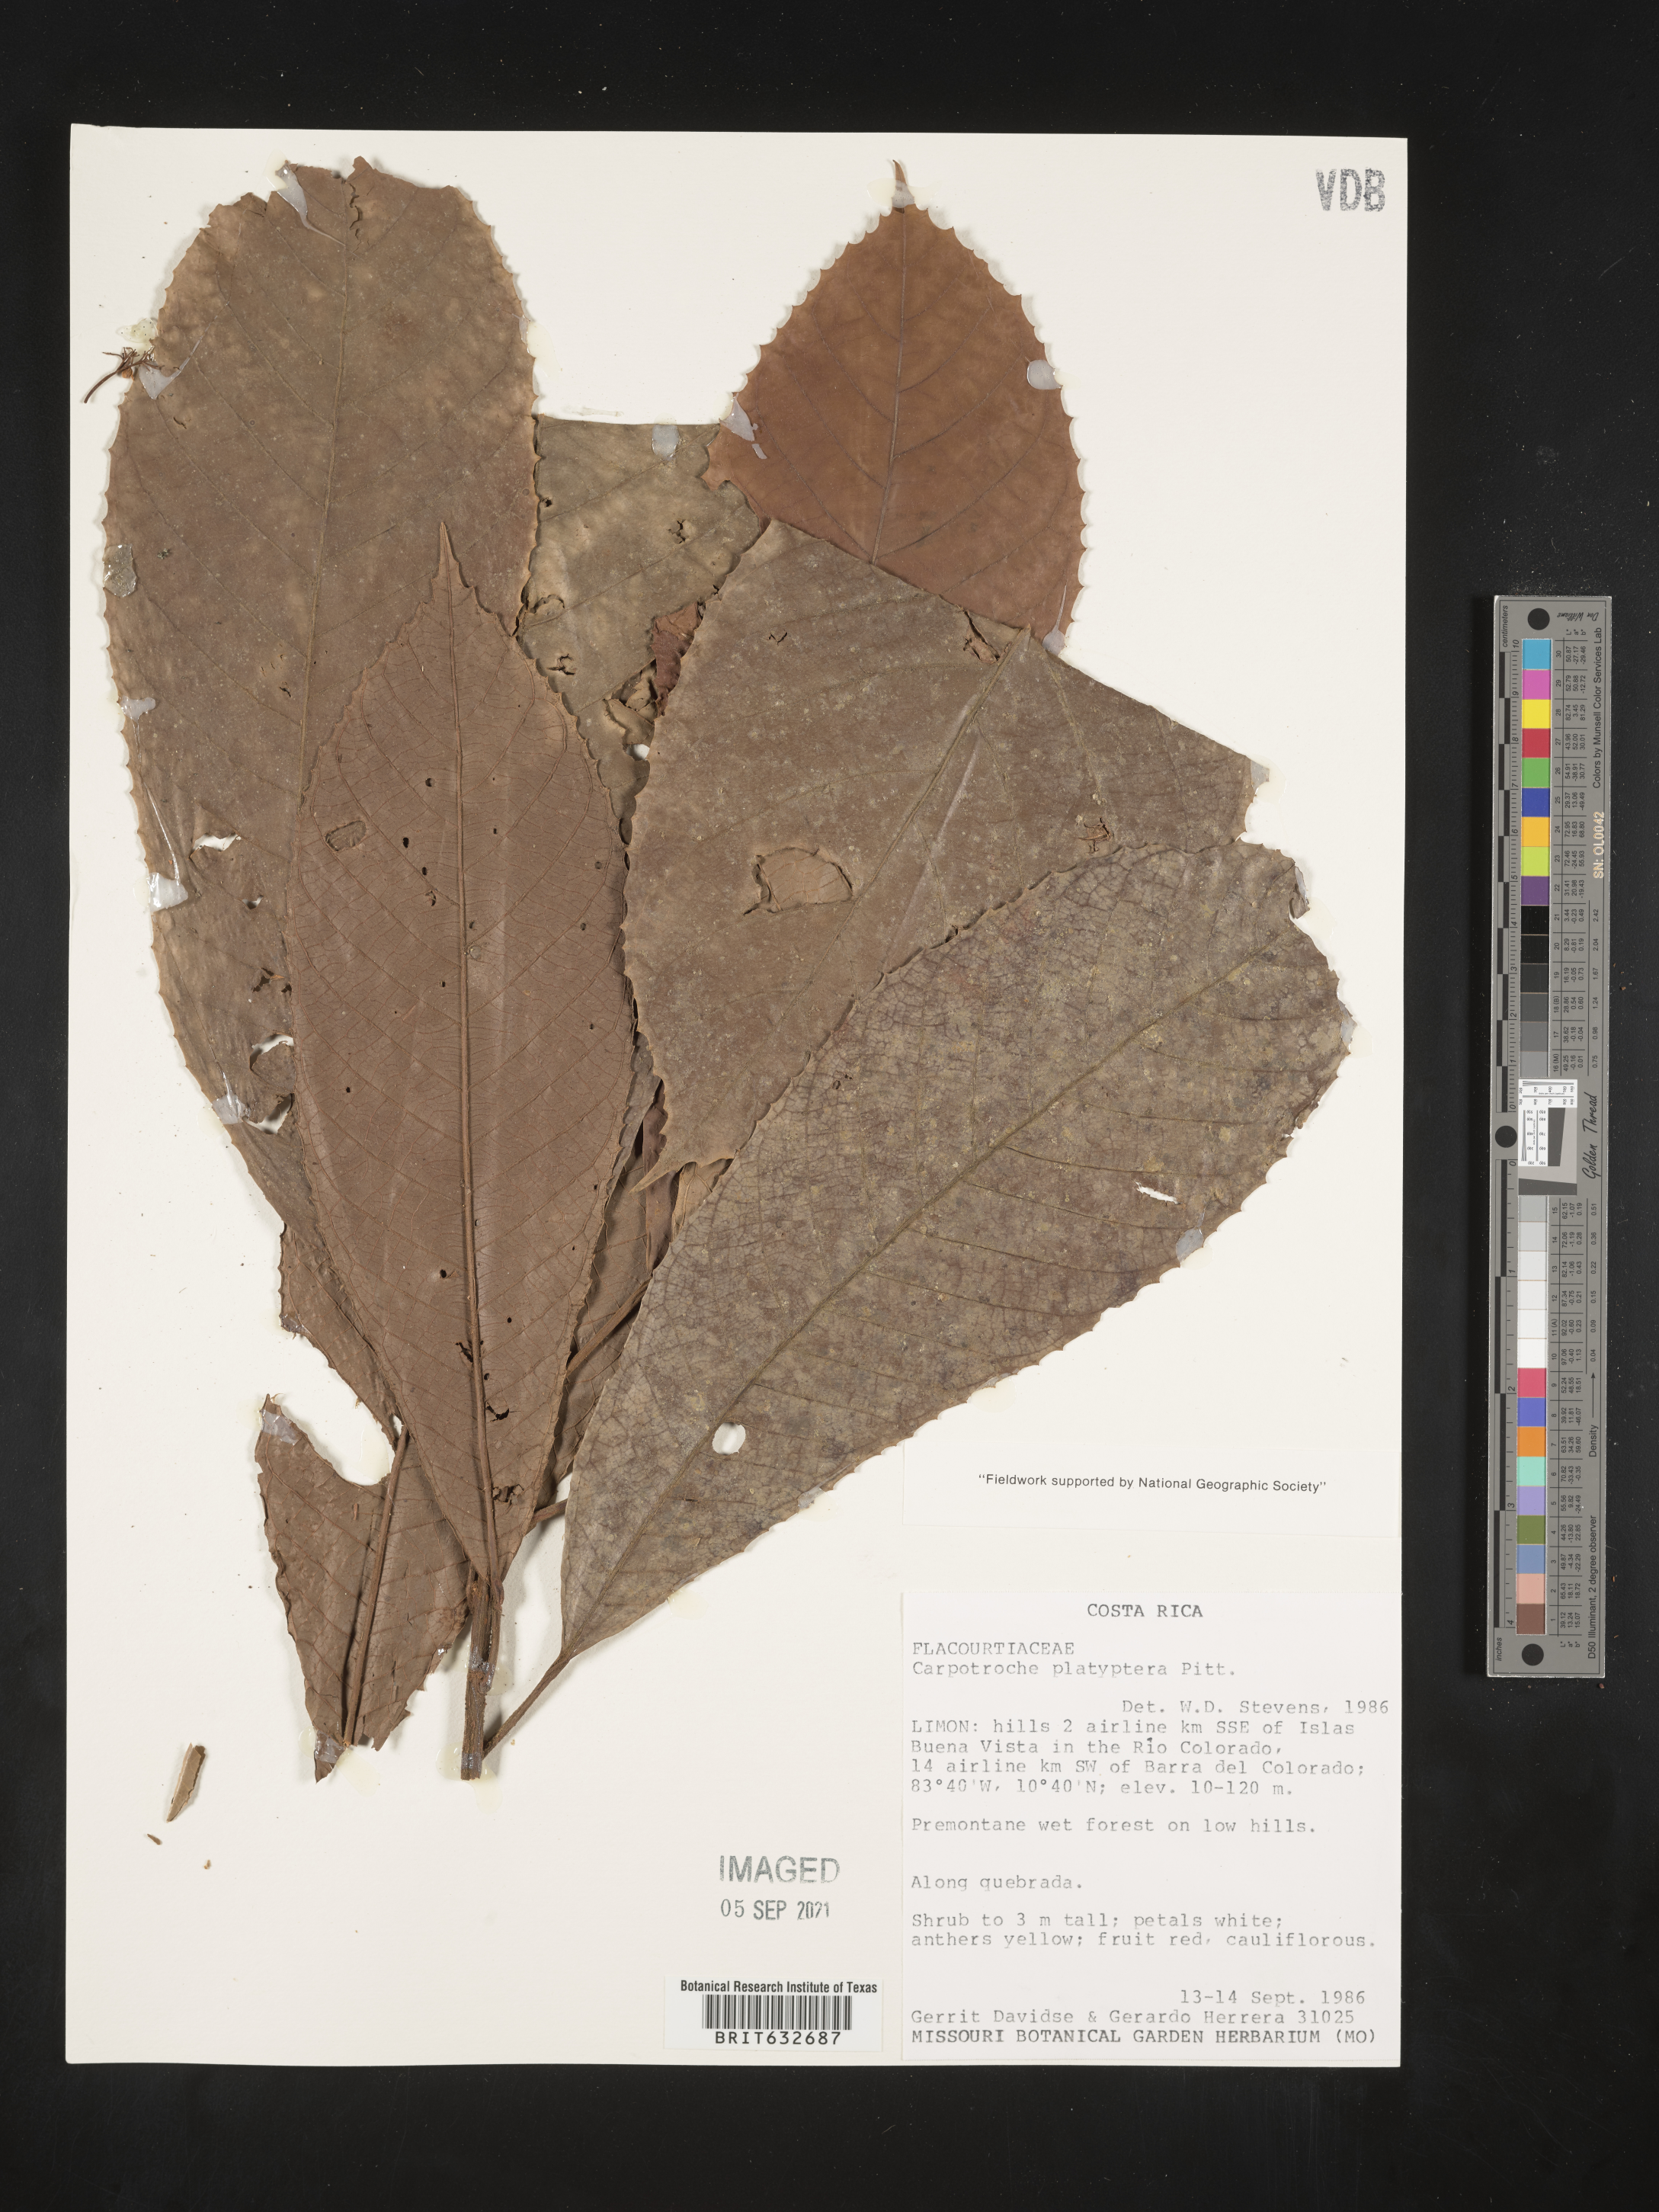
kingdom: Plantae
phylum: Tracheophyta
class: Magnoliopsida
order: Malpighiales
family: Achariaceae
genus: Carpotroche
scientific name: Carpotroche platyptera
